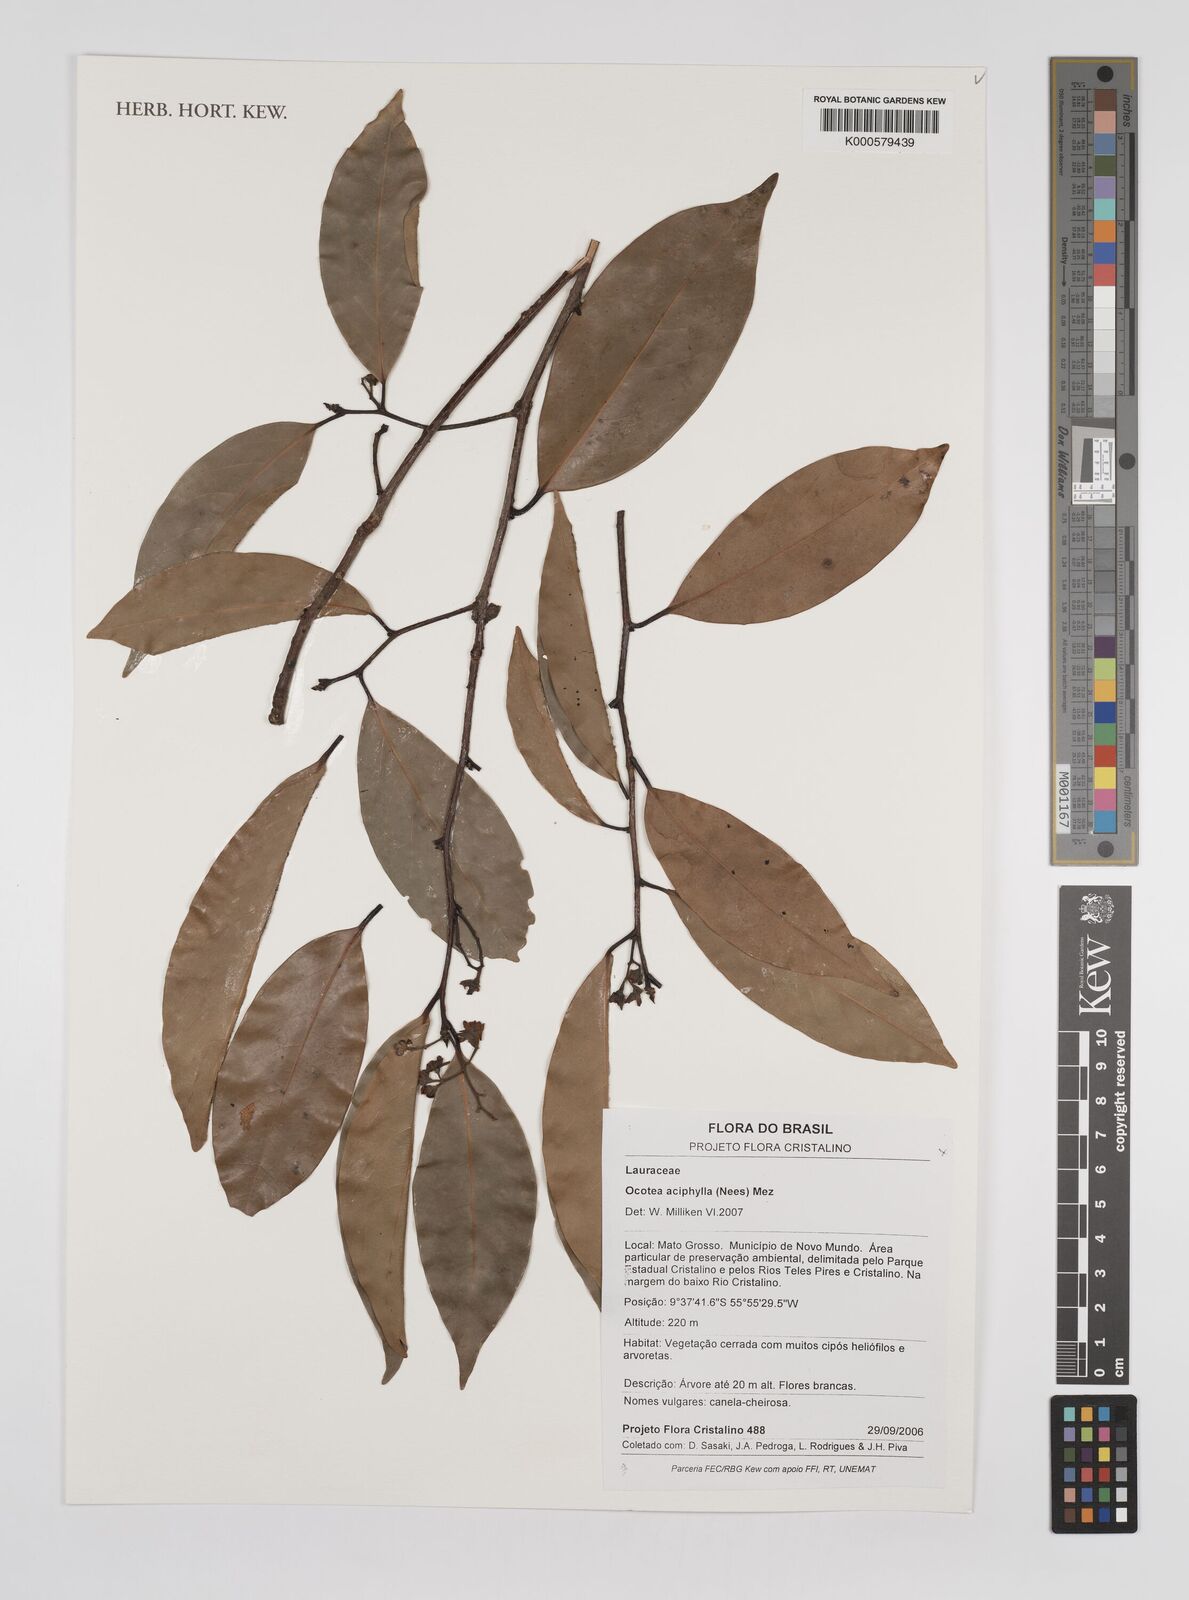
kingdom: Plantae
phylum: Tracheophyta
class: Magnoliopsida
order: Laurales
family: Lauraceae
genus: Ocotea
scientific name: Ocotea aciphylla
